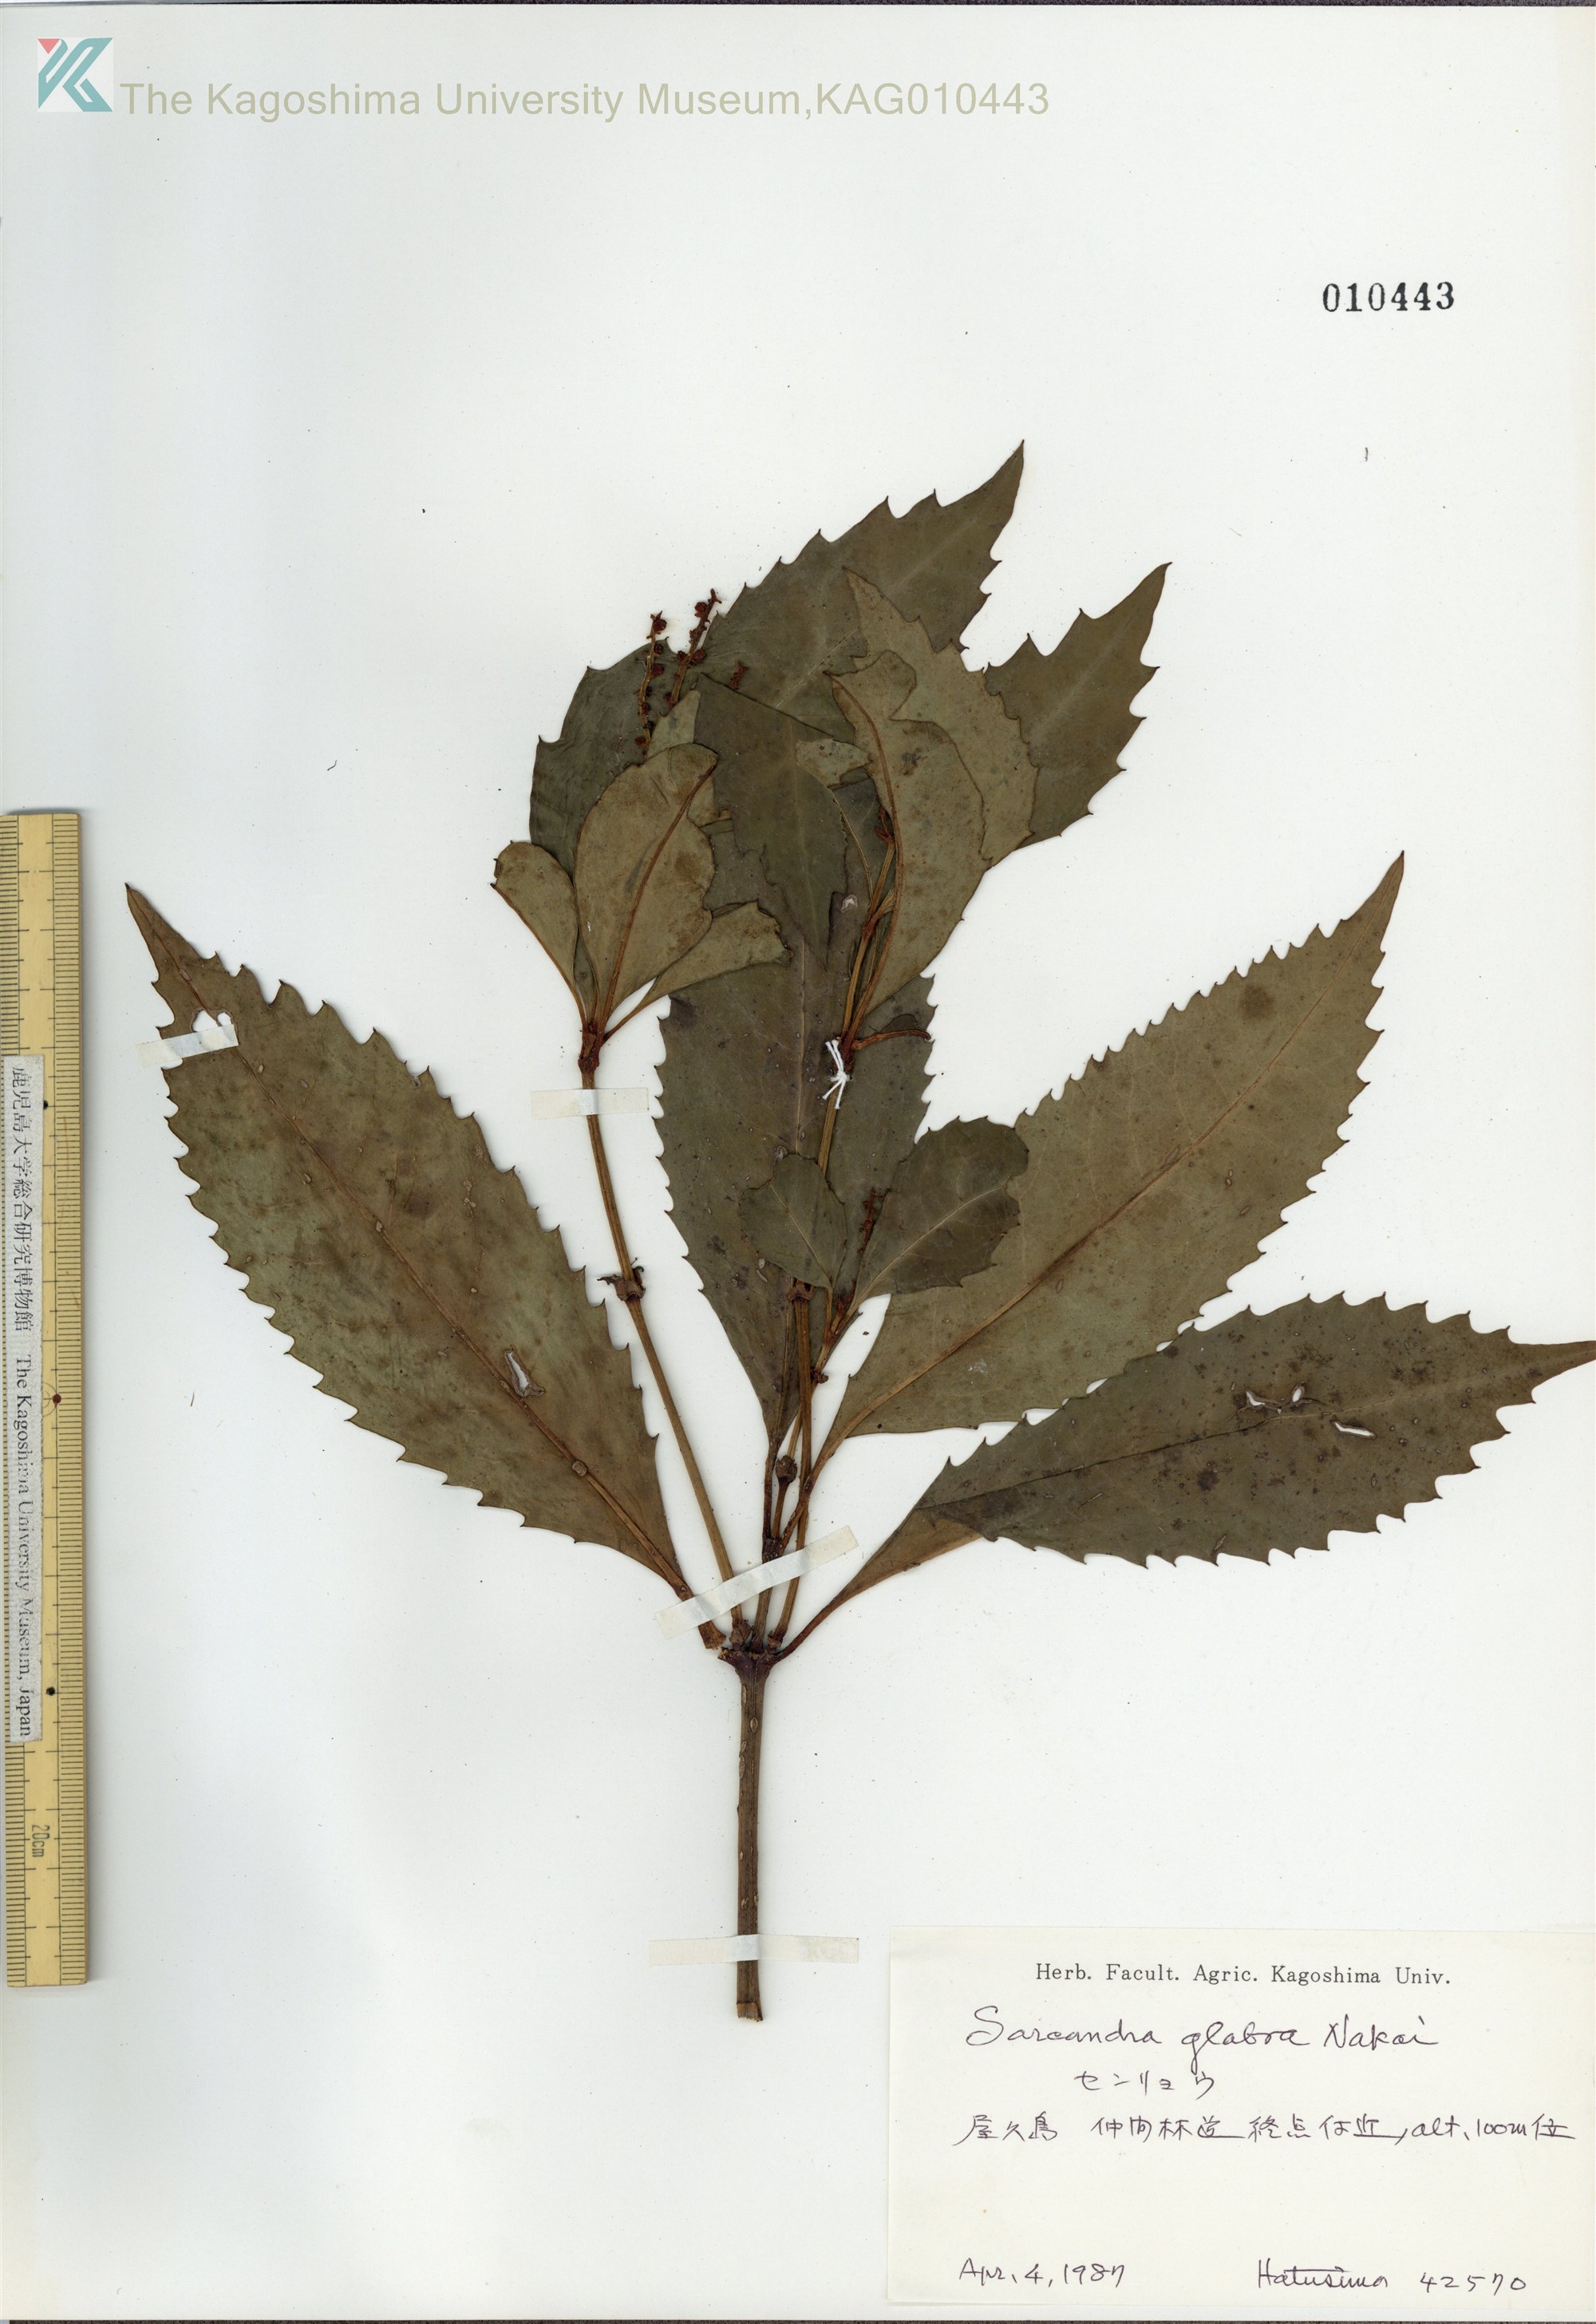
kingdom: Plantae
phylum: Tracheophyta
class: Magnoliopsida
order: Chloranthales
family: Chloranthaceae
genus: Sarcandra
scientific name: Sarcandra glabra
